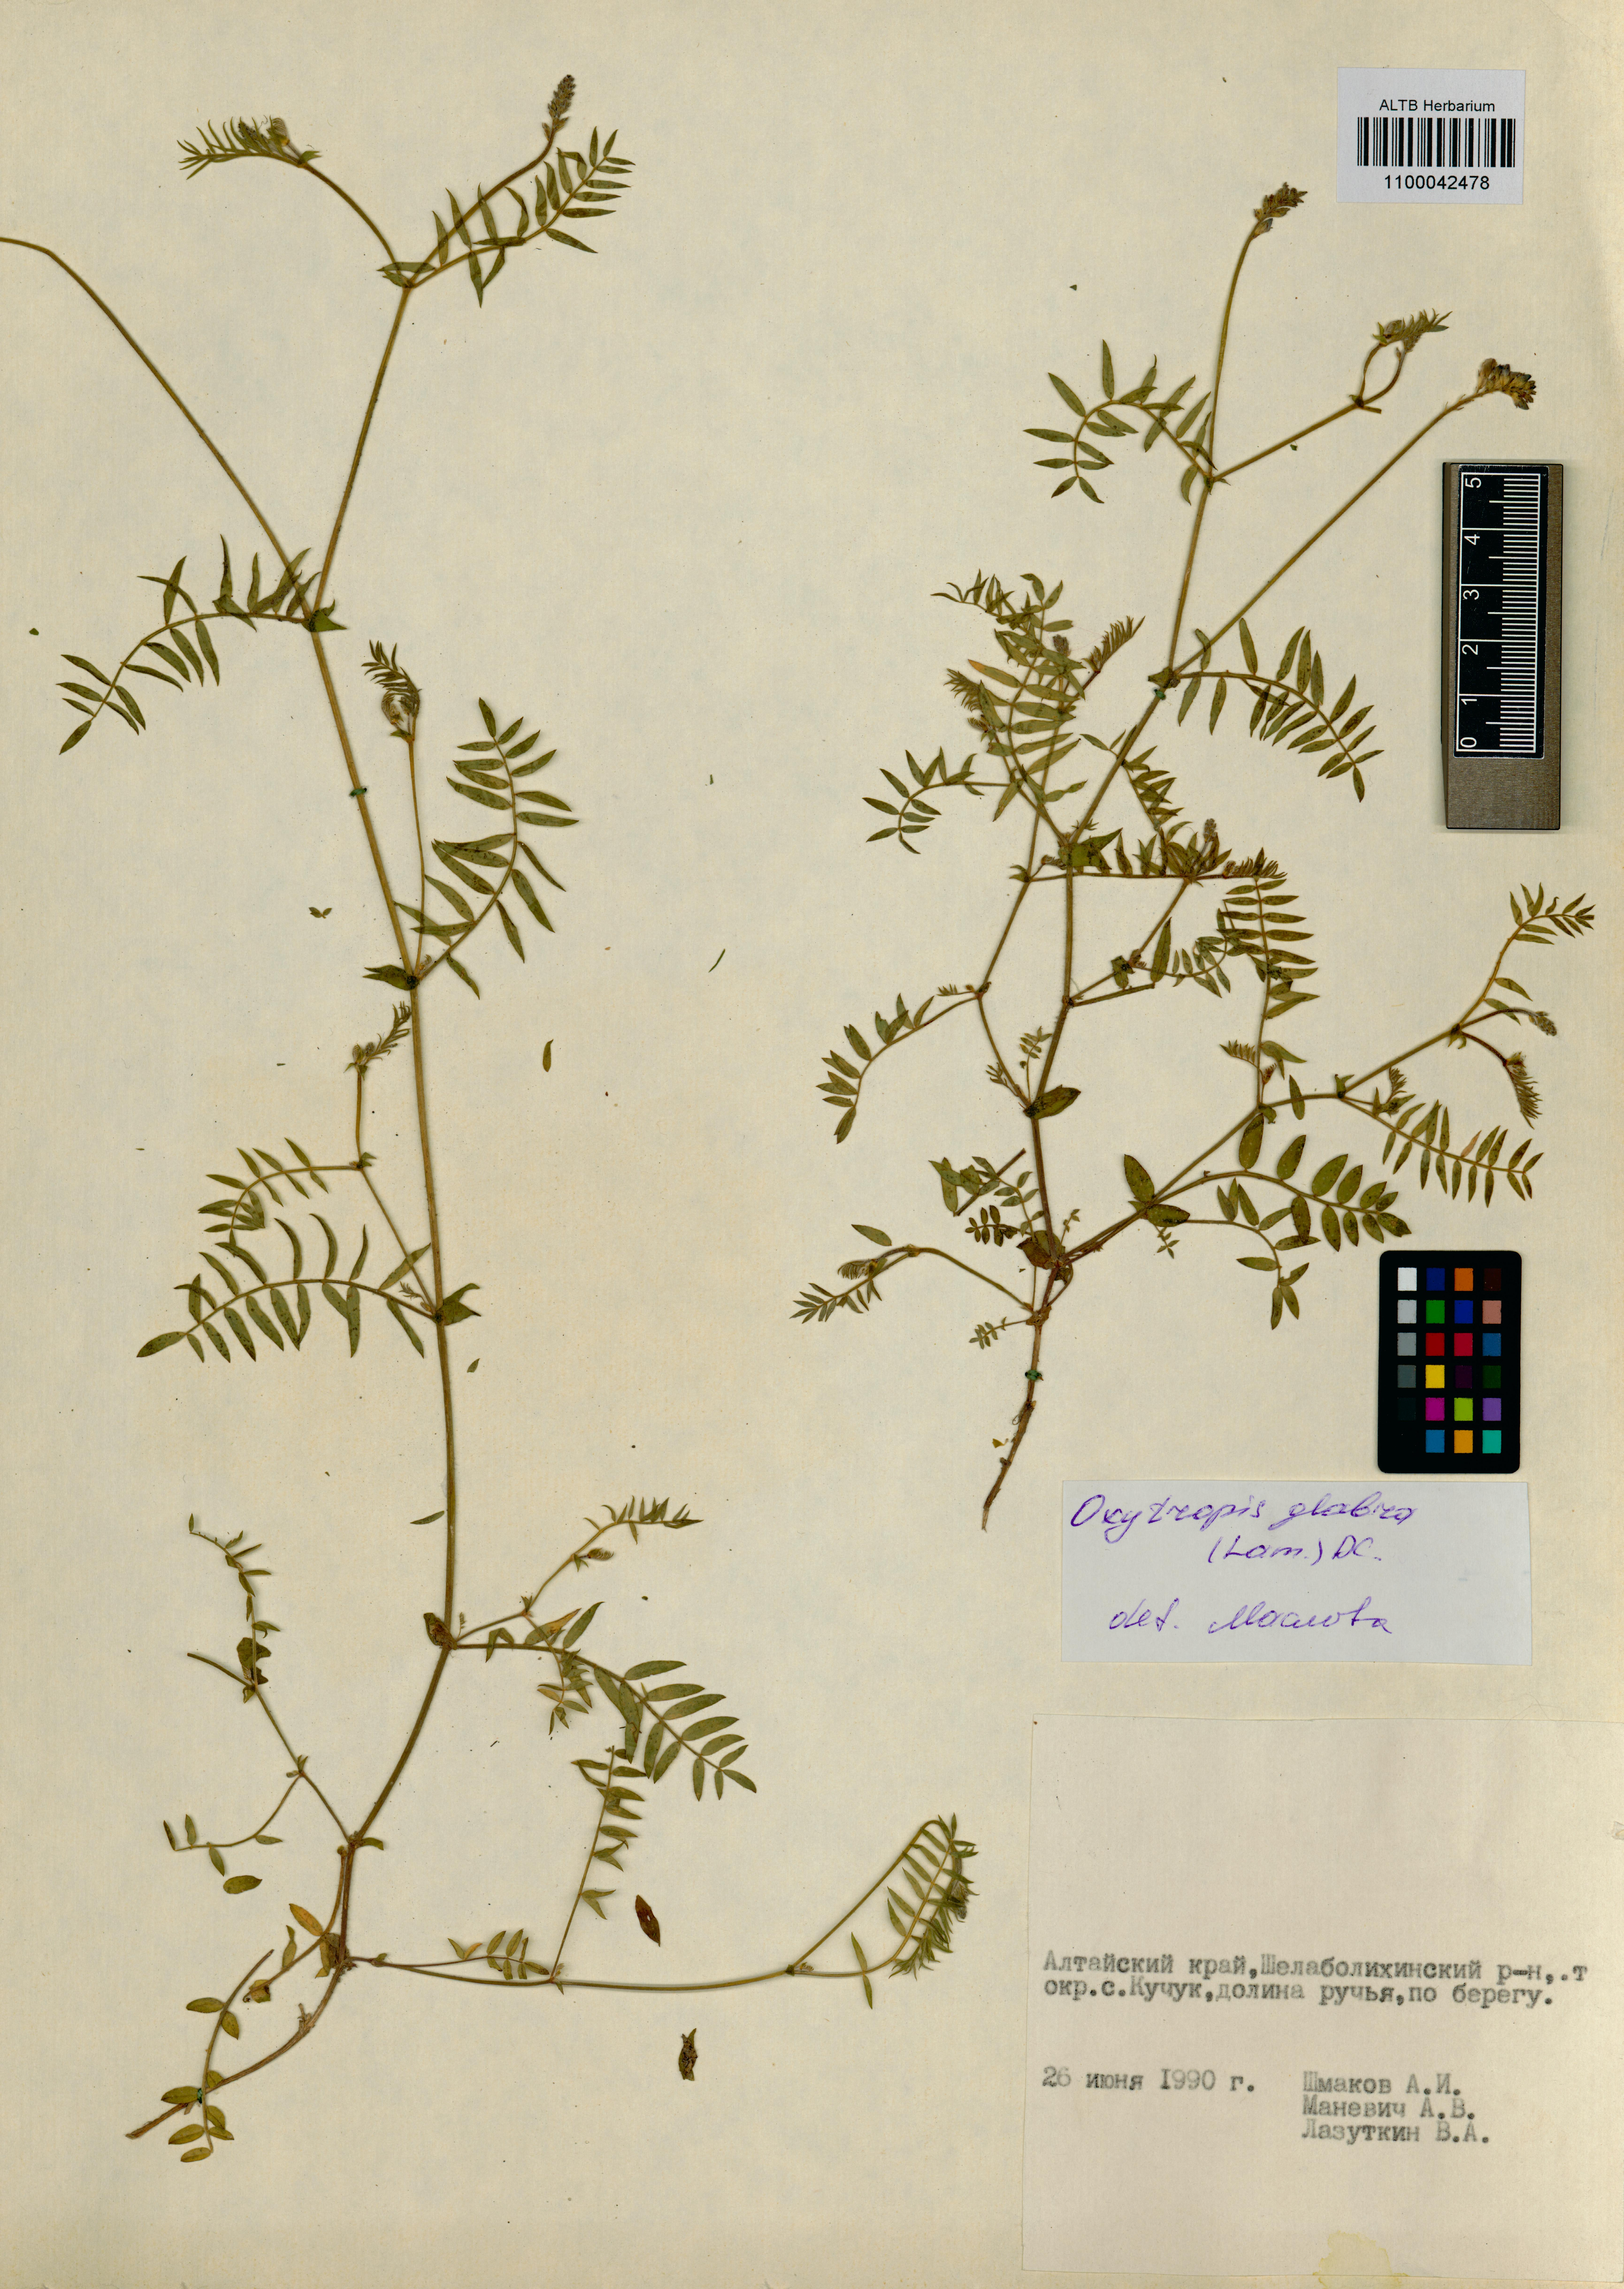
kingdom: Plantae
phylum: Tracheophyta
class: Magnoliopsida
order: Fabales
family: Fabaceae
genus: Oxytropis
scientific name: Oxytropis glabra
